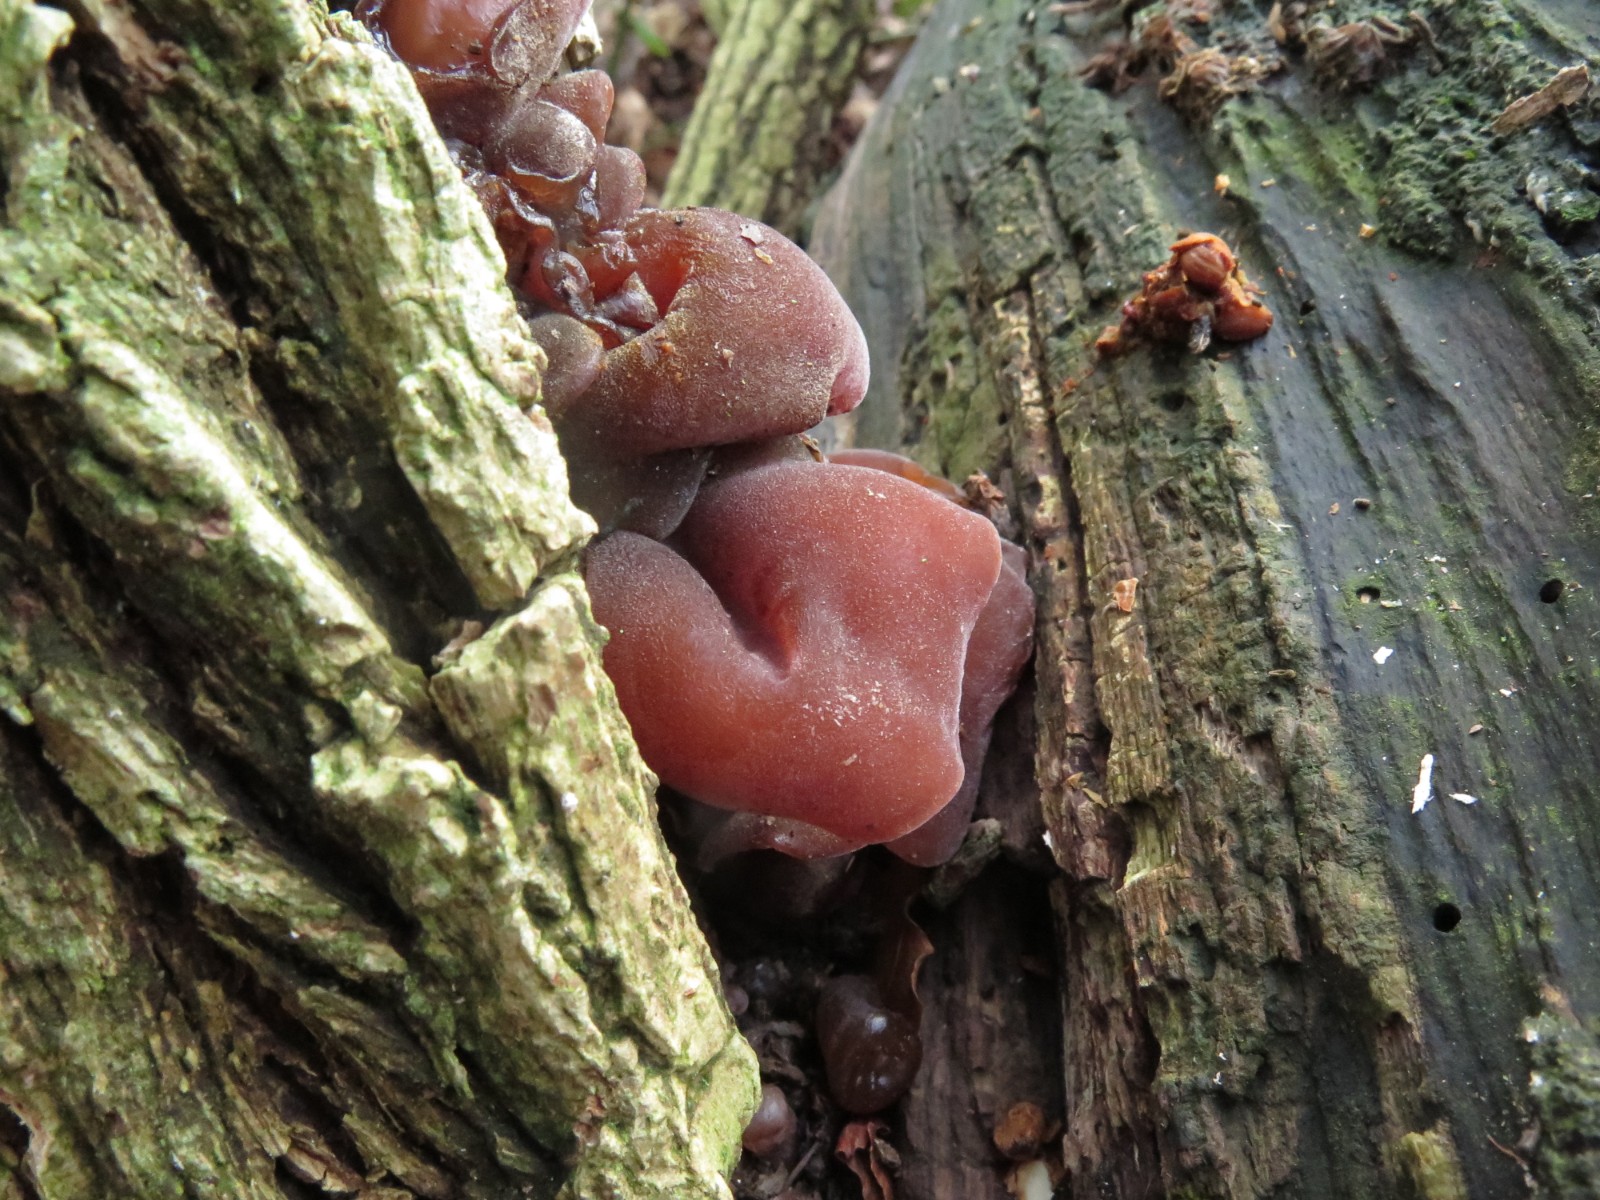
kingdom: Fungi
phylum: Basidiomycota
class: Agaricomycetes
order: Auriculariales
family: Auriculariaceae
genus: Auricularia
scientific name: Auricularia auricula-judae
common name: almindelig judasøre
